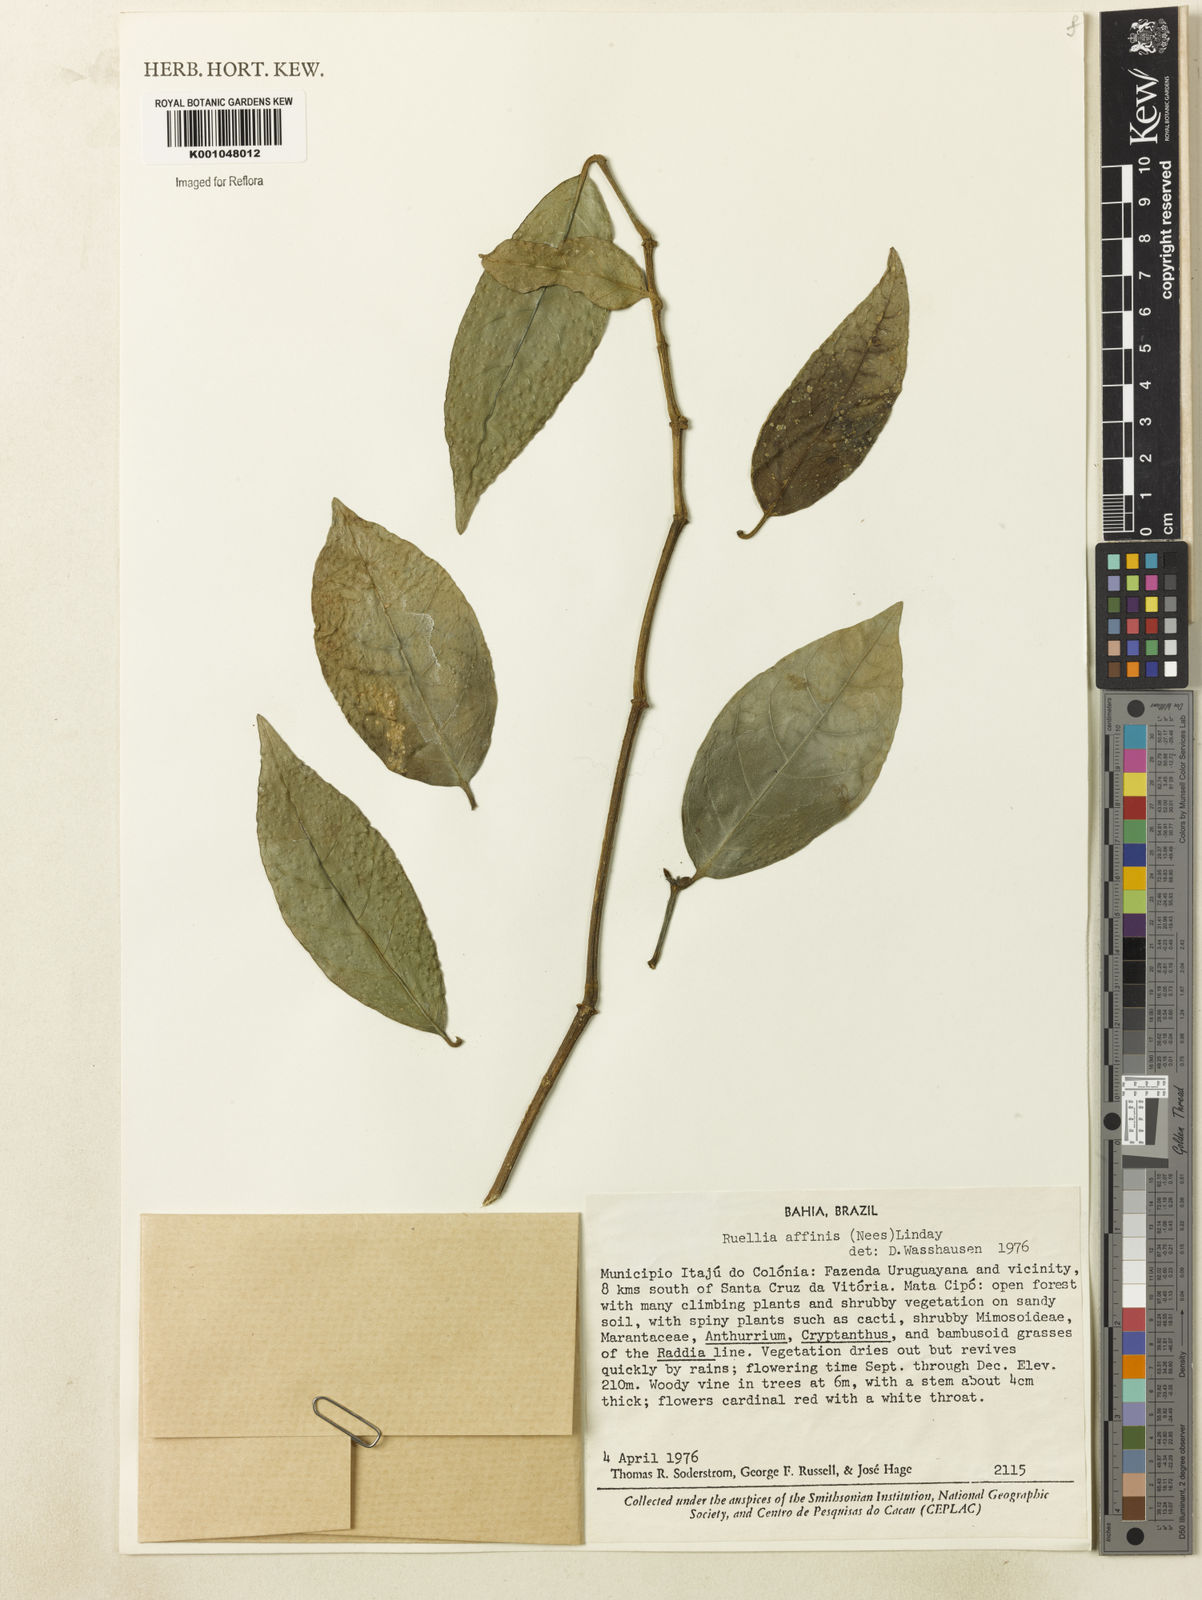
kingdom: Plantae
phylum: Tracheophyta
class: Magnoliopsida
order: Lamiales
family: Acanthaceae
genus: Ruellia
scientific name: Ruellia adenocalyx
